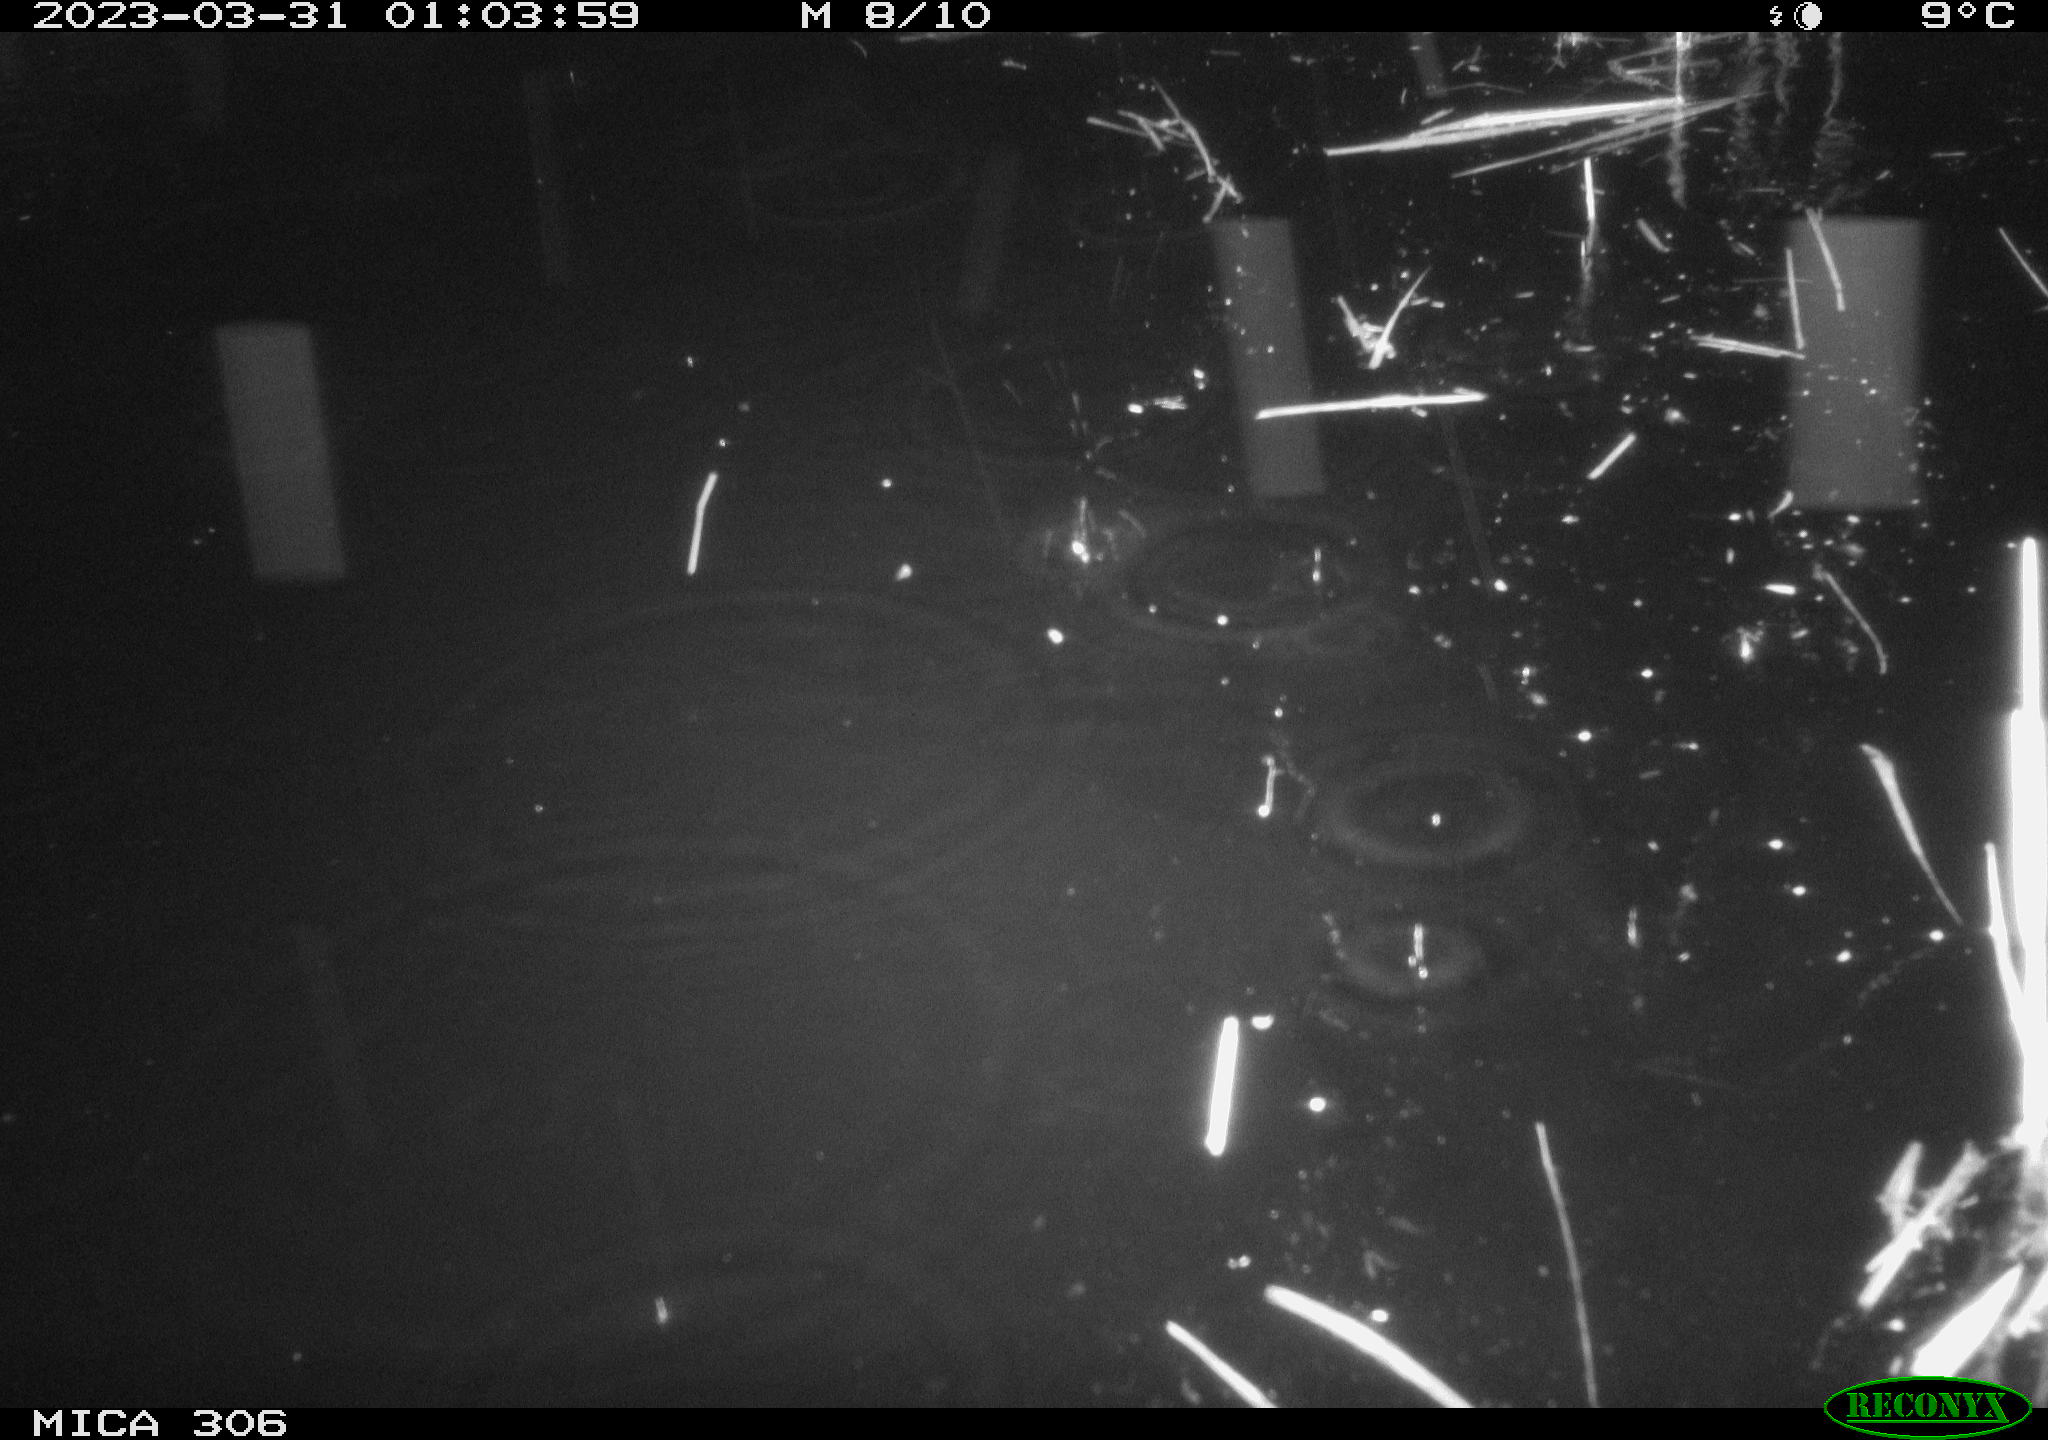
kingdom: Animalia
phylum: Chordata
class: Mammalia
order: Rodentia
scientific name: Rodentia
